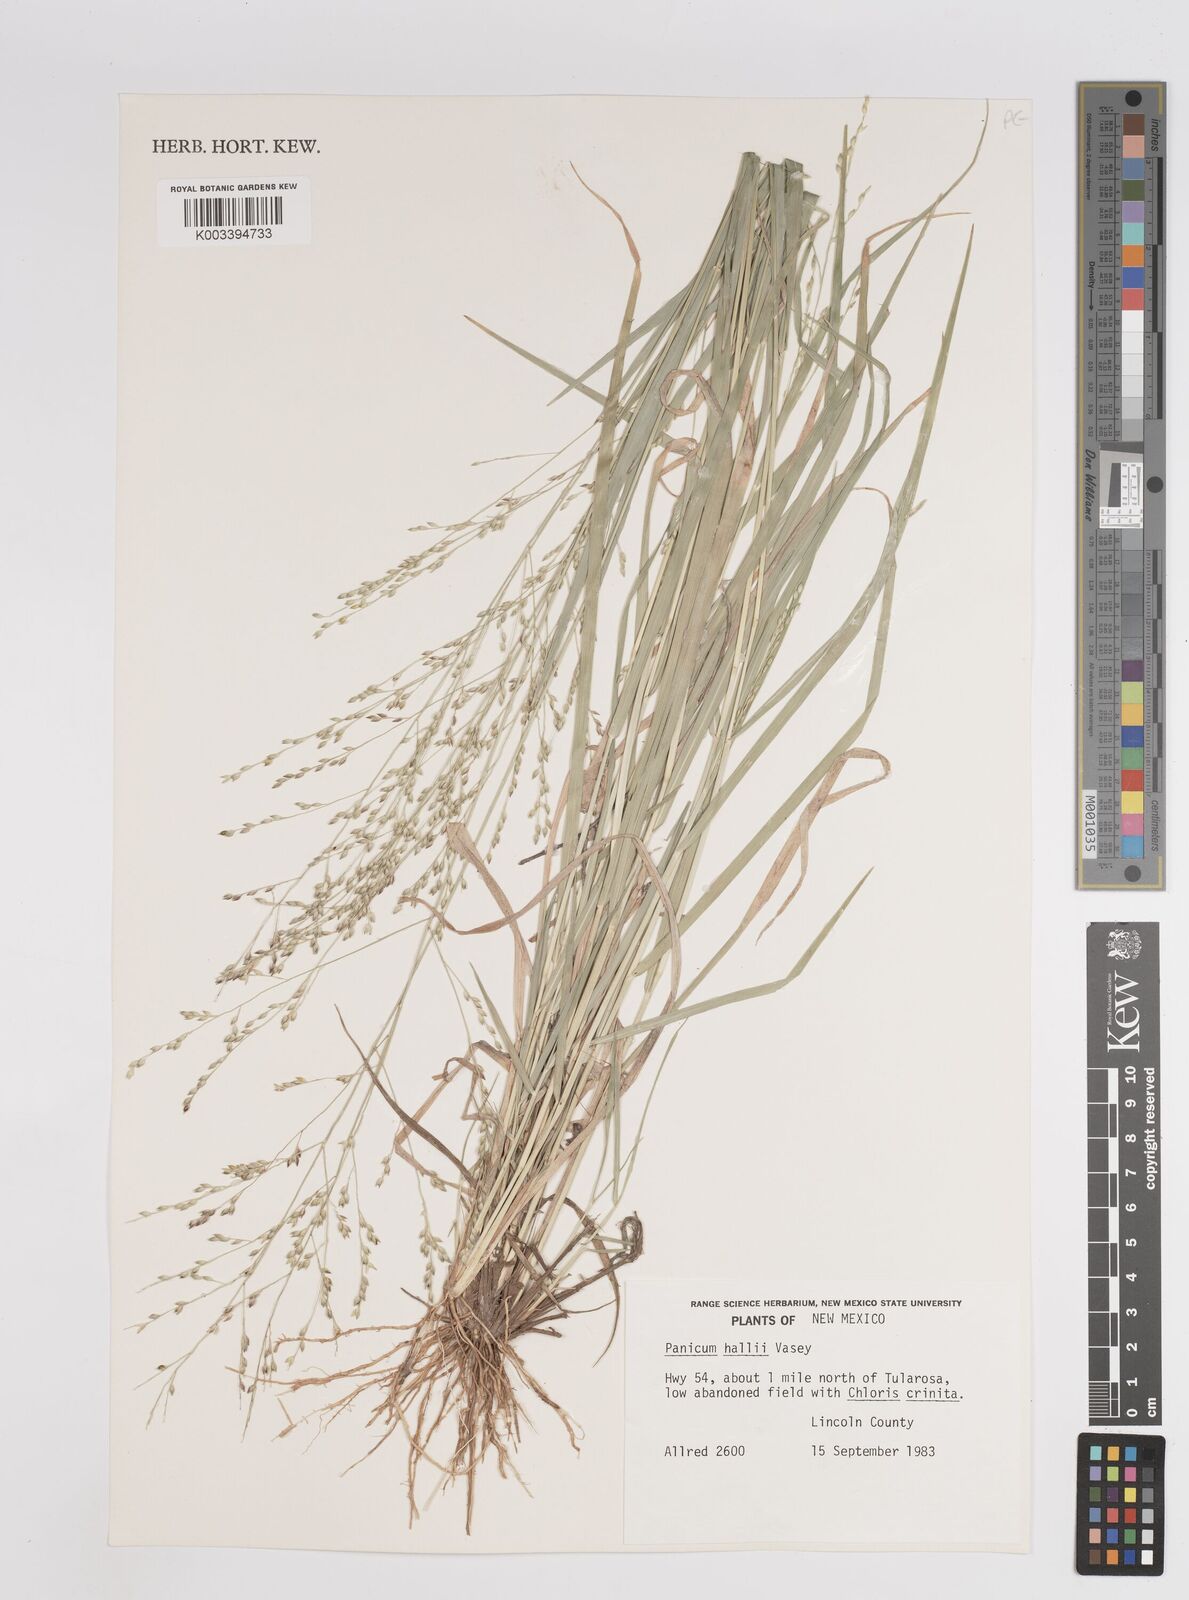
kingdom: Plantae
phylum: Tracheophyta
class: Liliopsida
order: Poales
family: Poaceae
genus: Panicum
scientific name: Panicum hallii
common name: Hall's witchgrass
